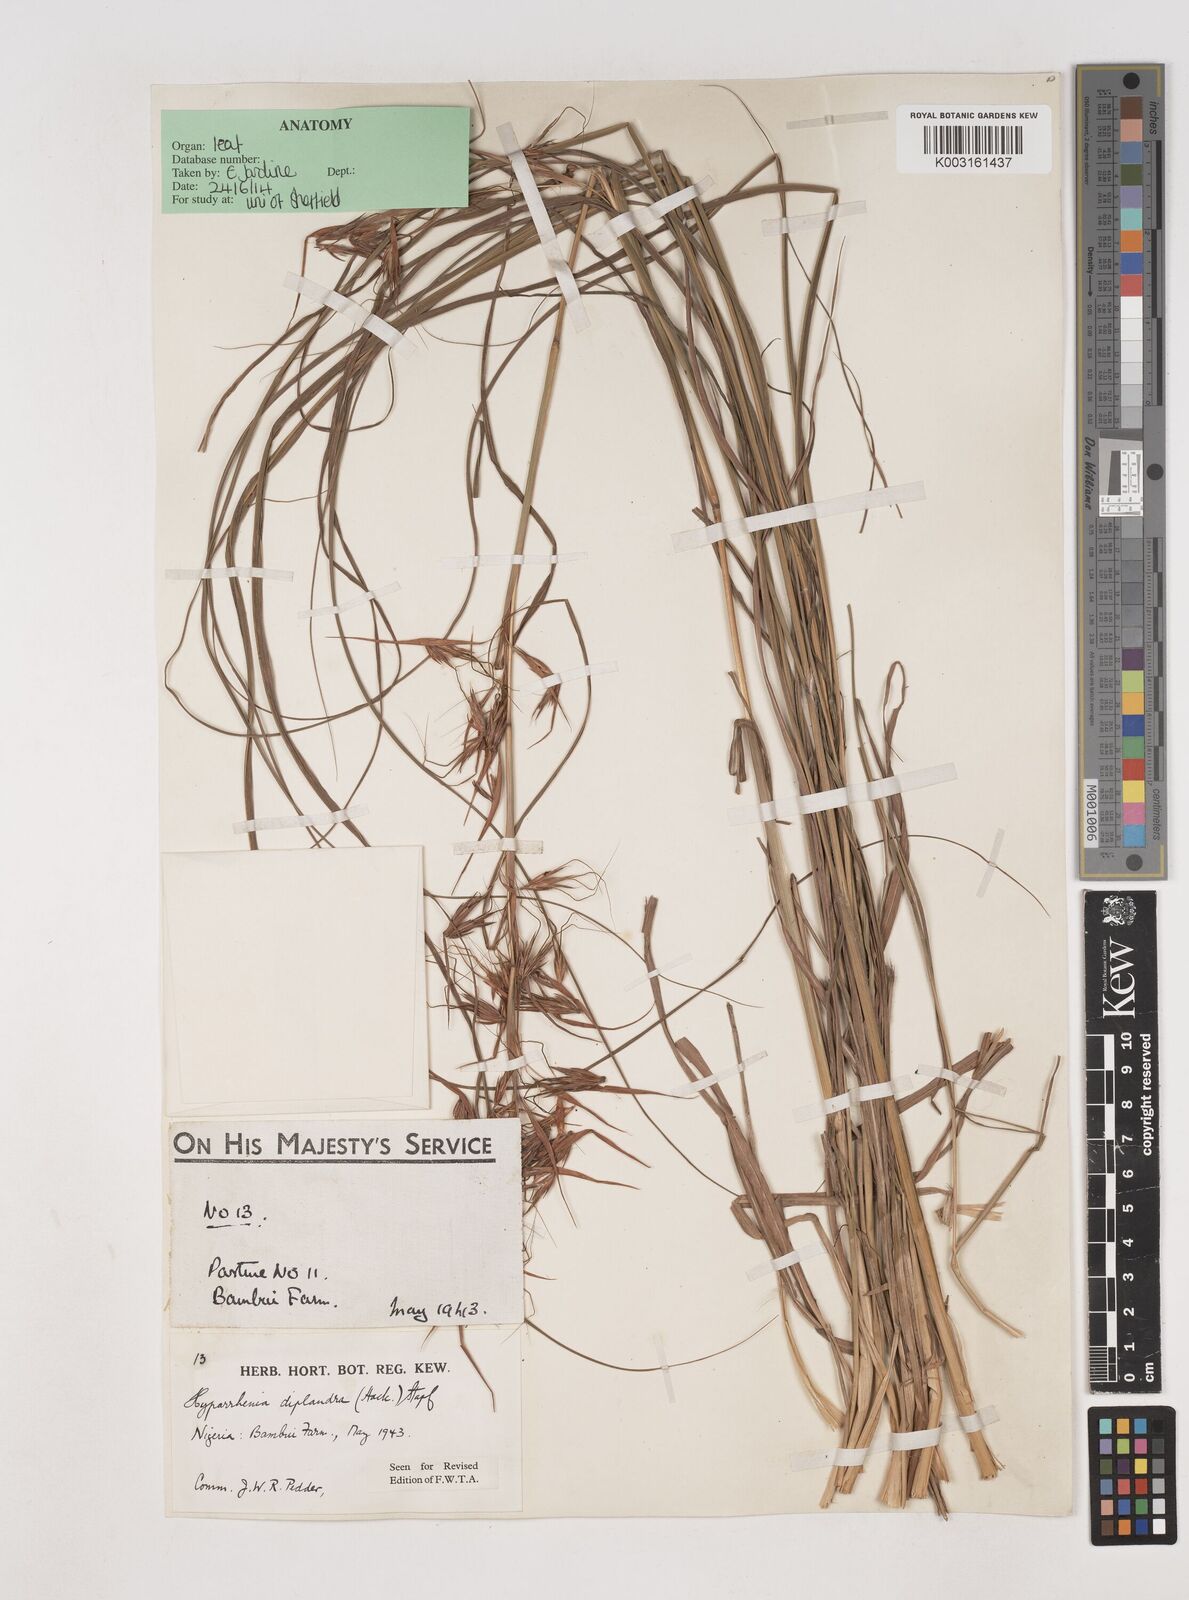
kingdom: Plantae
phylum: Tracheophyta
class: Liliopsida
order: Poales
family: Poaceae
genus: Hyparrhenia
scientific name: Hyparrhenia diplandra
